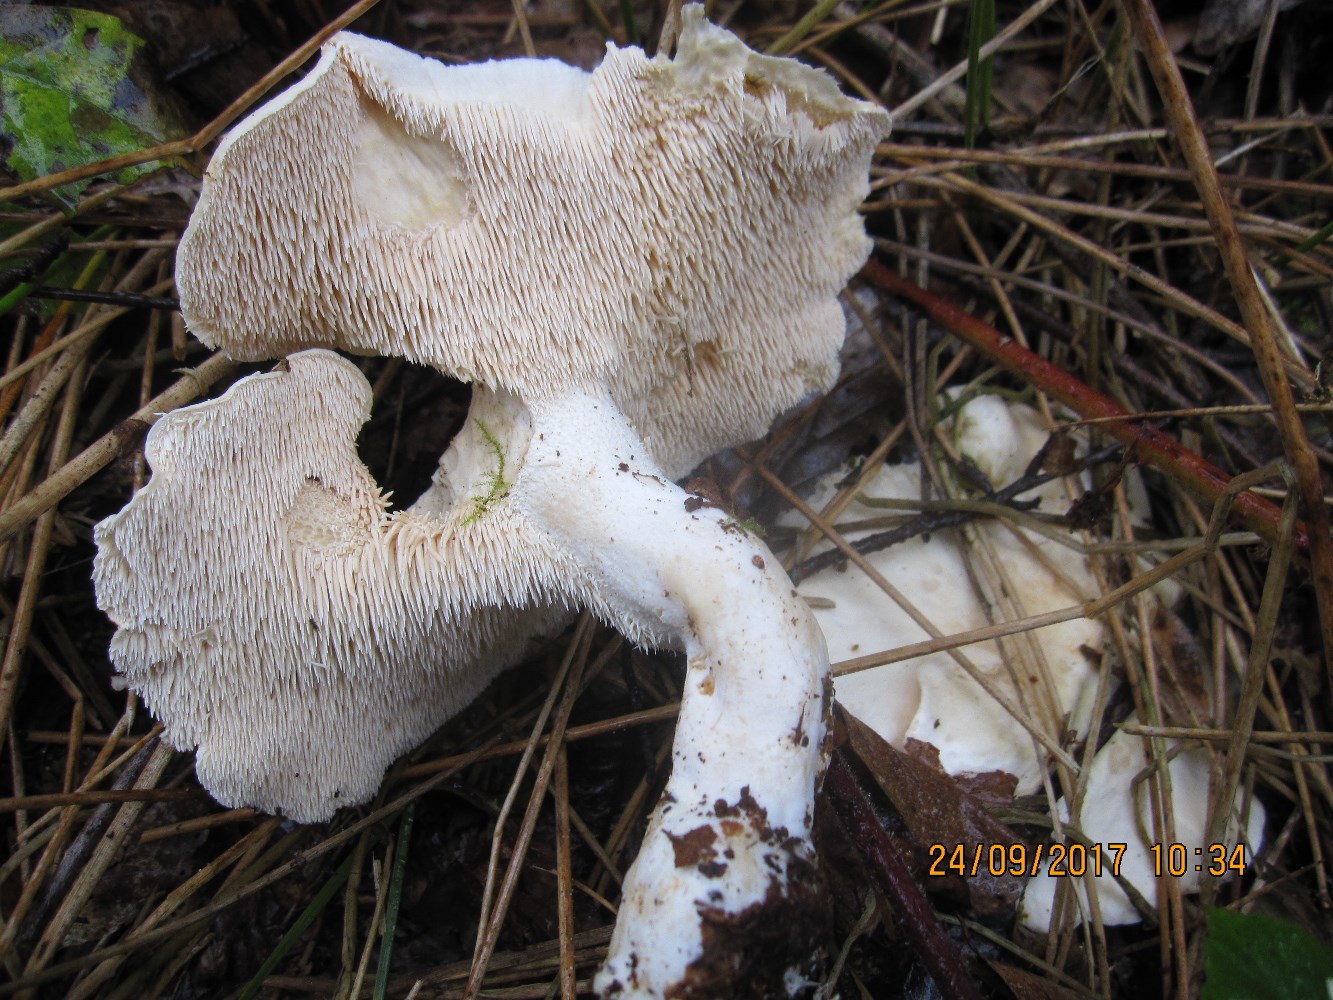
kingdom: Fungi
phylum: Basidiomycota
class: Agaricomycetes
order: Cantharellales
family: Hydnaceae
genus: Hydnum
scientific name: Hydnum repandum
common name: almindelig pigsvamp
